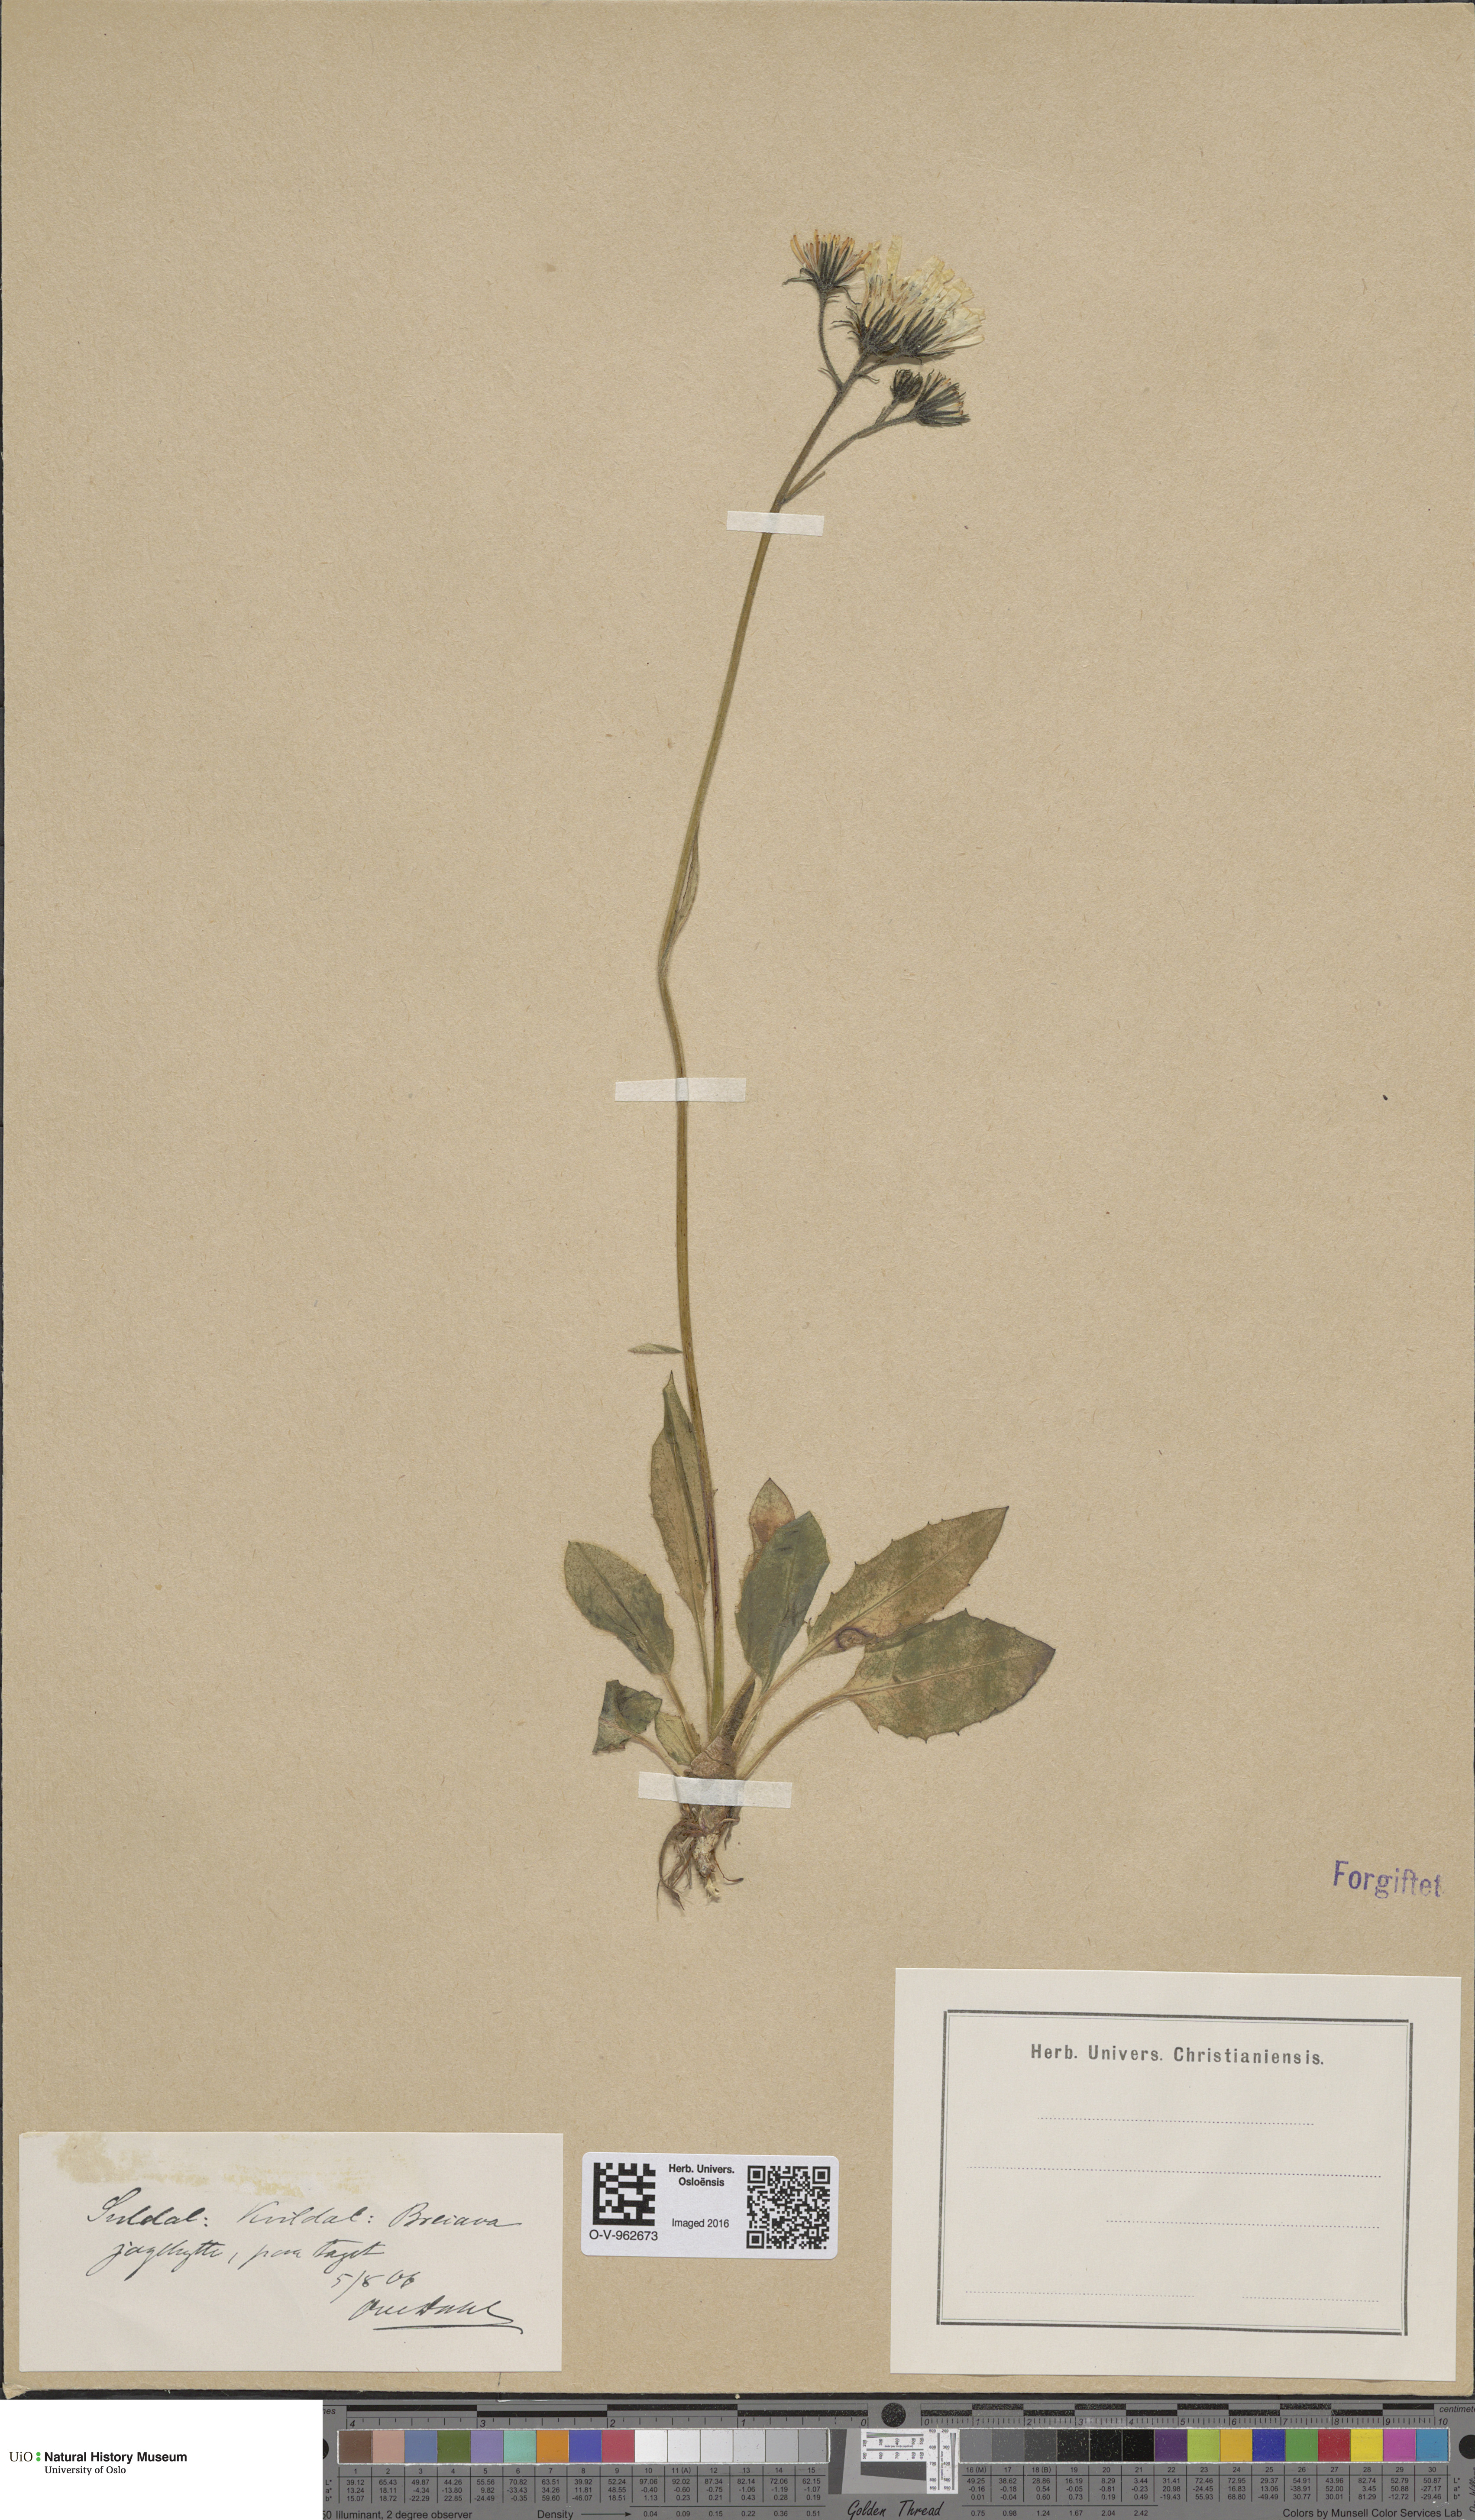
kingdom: Plantae
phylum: Tracheophyta
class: Magnoliopsida
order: Asterales
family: Asteraceae
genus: Hieracium
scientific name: Hieracium
